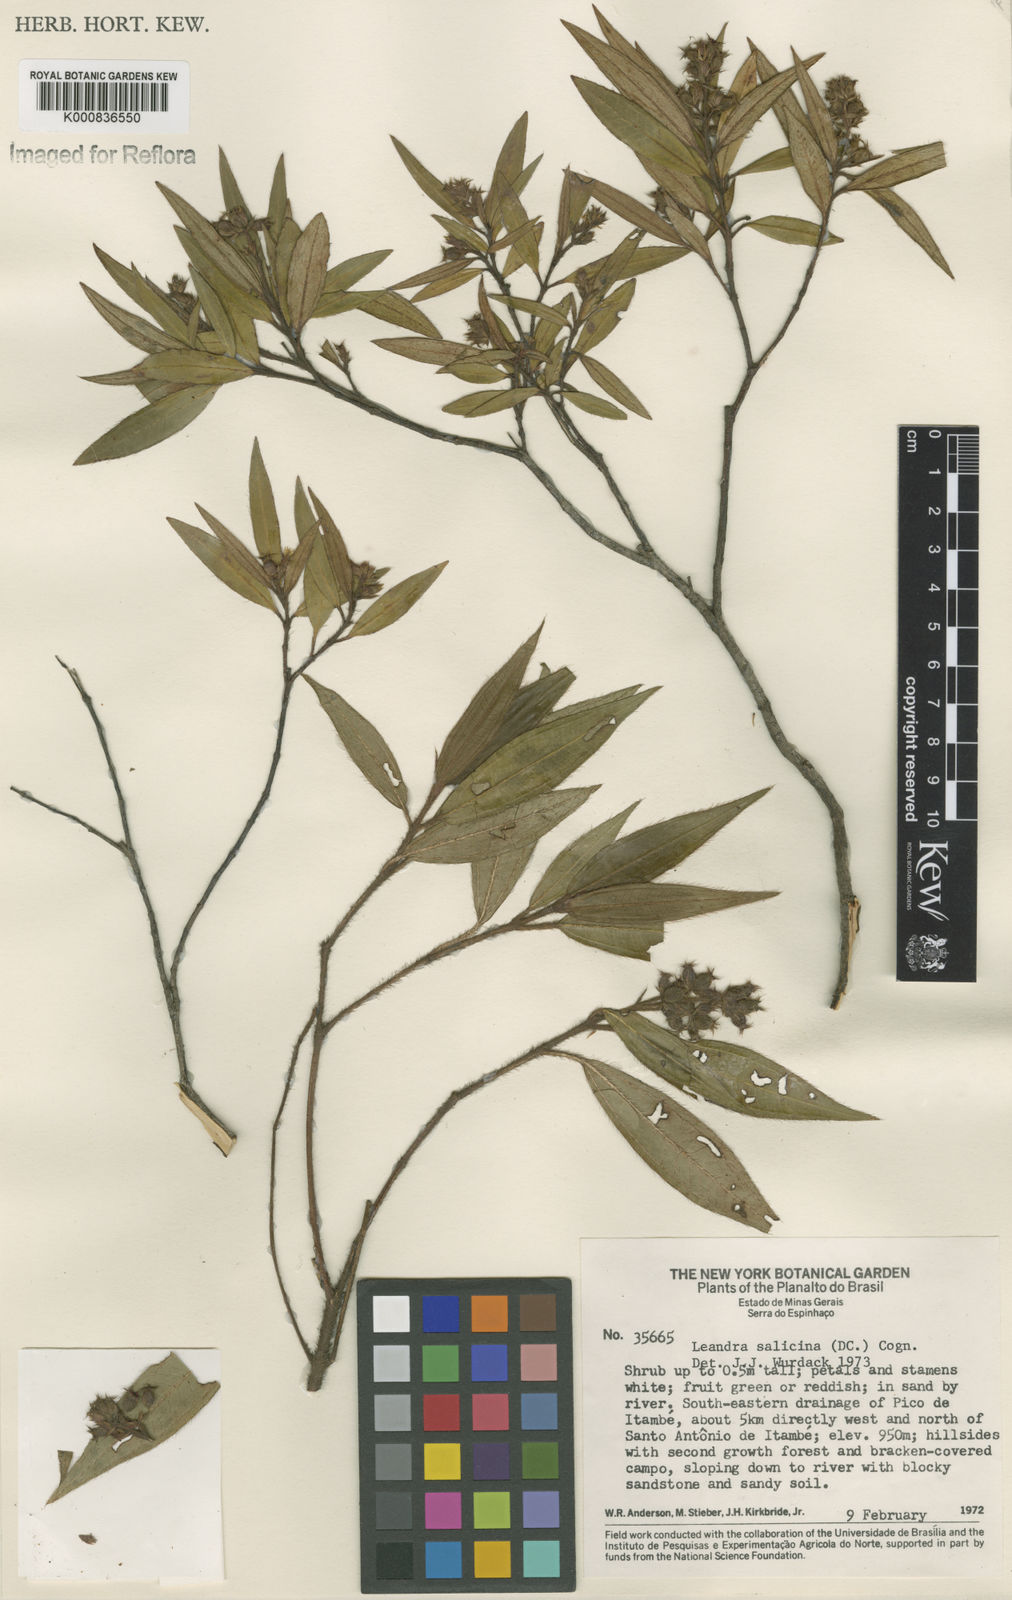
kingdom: Plantae
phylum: Tracheophyta
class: Magnoliopsida
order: Myrtales
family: Melastomataceae
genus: Miconia
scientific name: Miconia salicina
